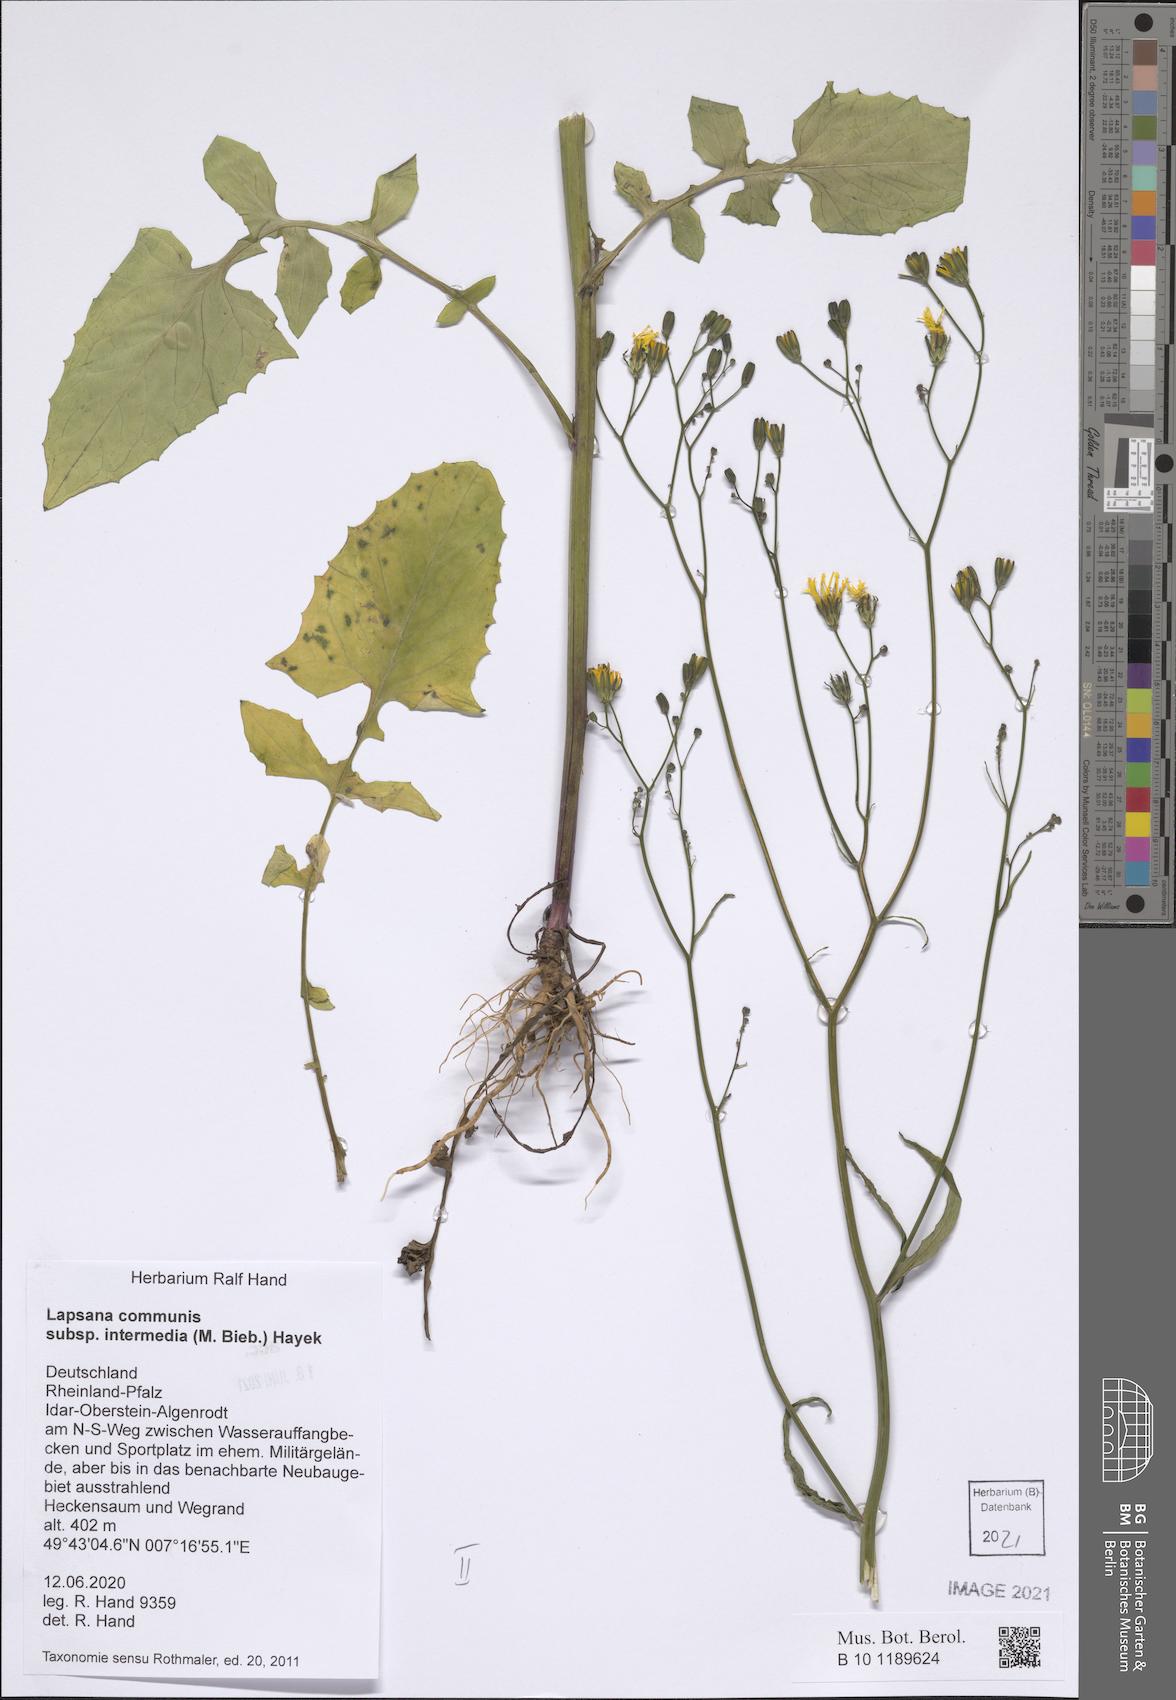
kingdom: Plantae
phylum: Tracheophyta
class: Magnoliopsida
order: Asterales
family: Asteraceae
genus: Lapsana
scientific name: Lapsana communis
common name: Nipplewort
